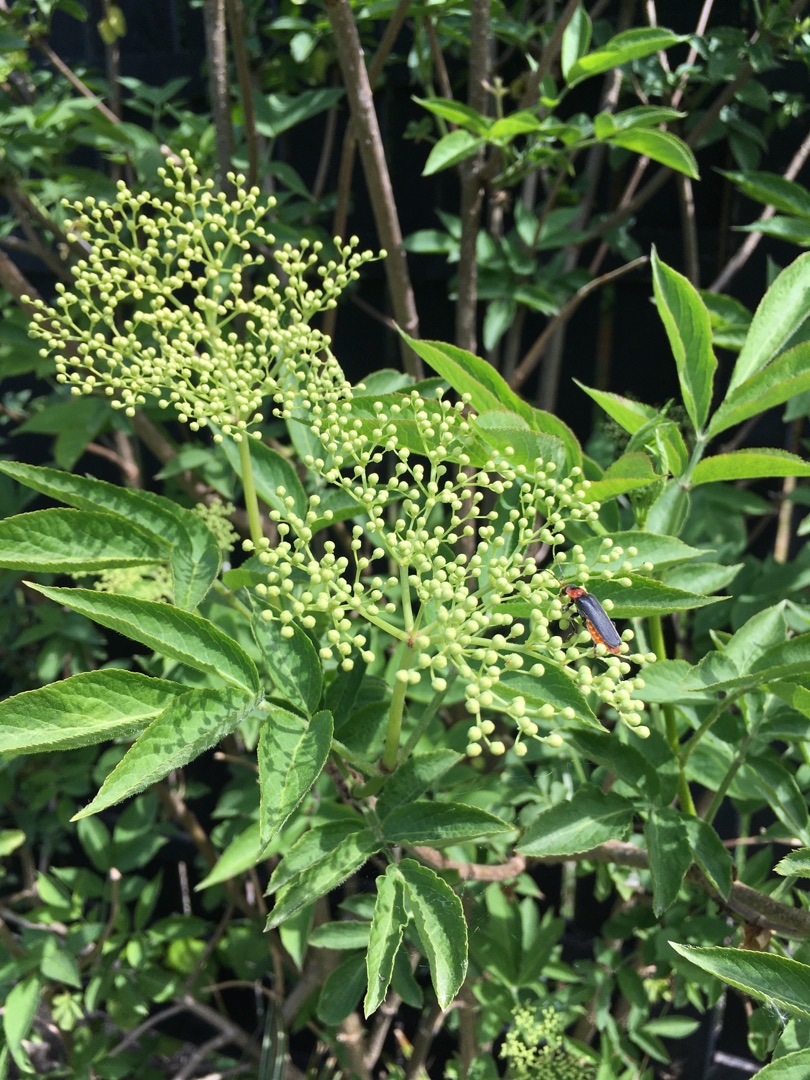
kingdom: Plantae
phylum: Tracheophyta
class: Magnoliopsida
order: Dipsacales
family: Viburnaceae
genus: Sambucus
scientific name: Sambucus nigra
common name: Almindelig hyld
